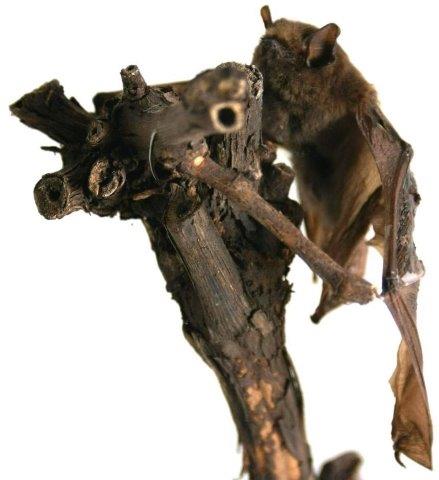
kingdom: Animalia
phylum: Chordata
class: Mammalia
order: Chiroptera
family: Vespertilionidae
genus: Pipistrellus
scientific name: Pipistrellus pipistrellus
